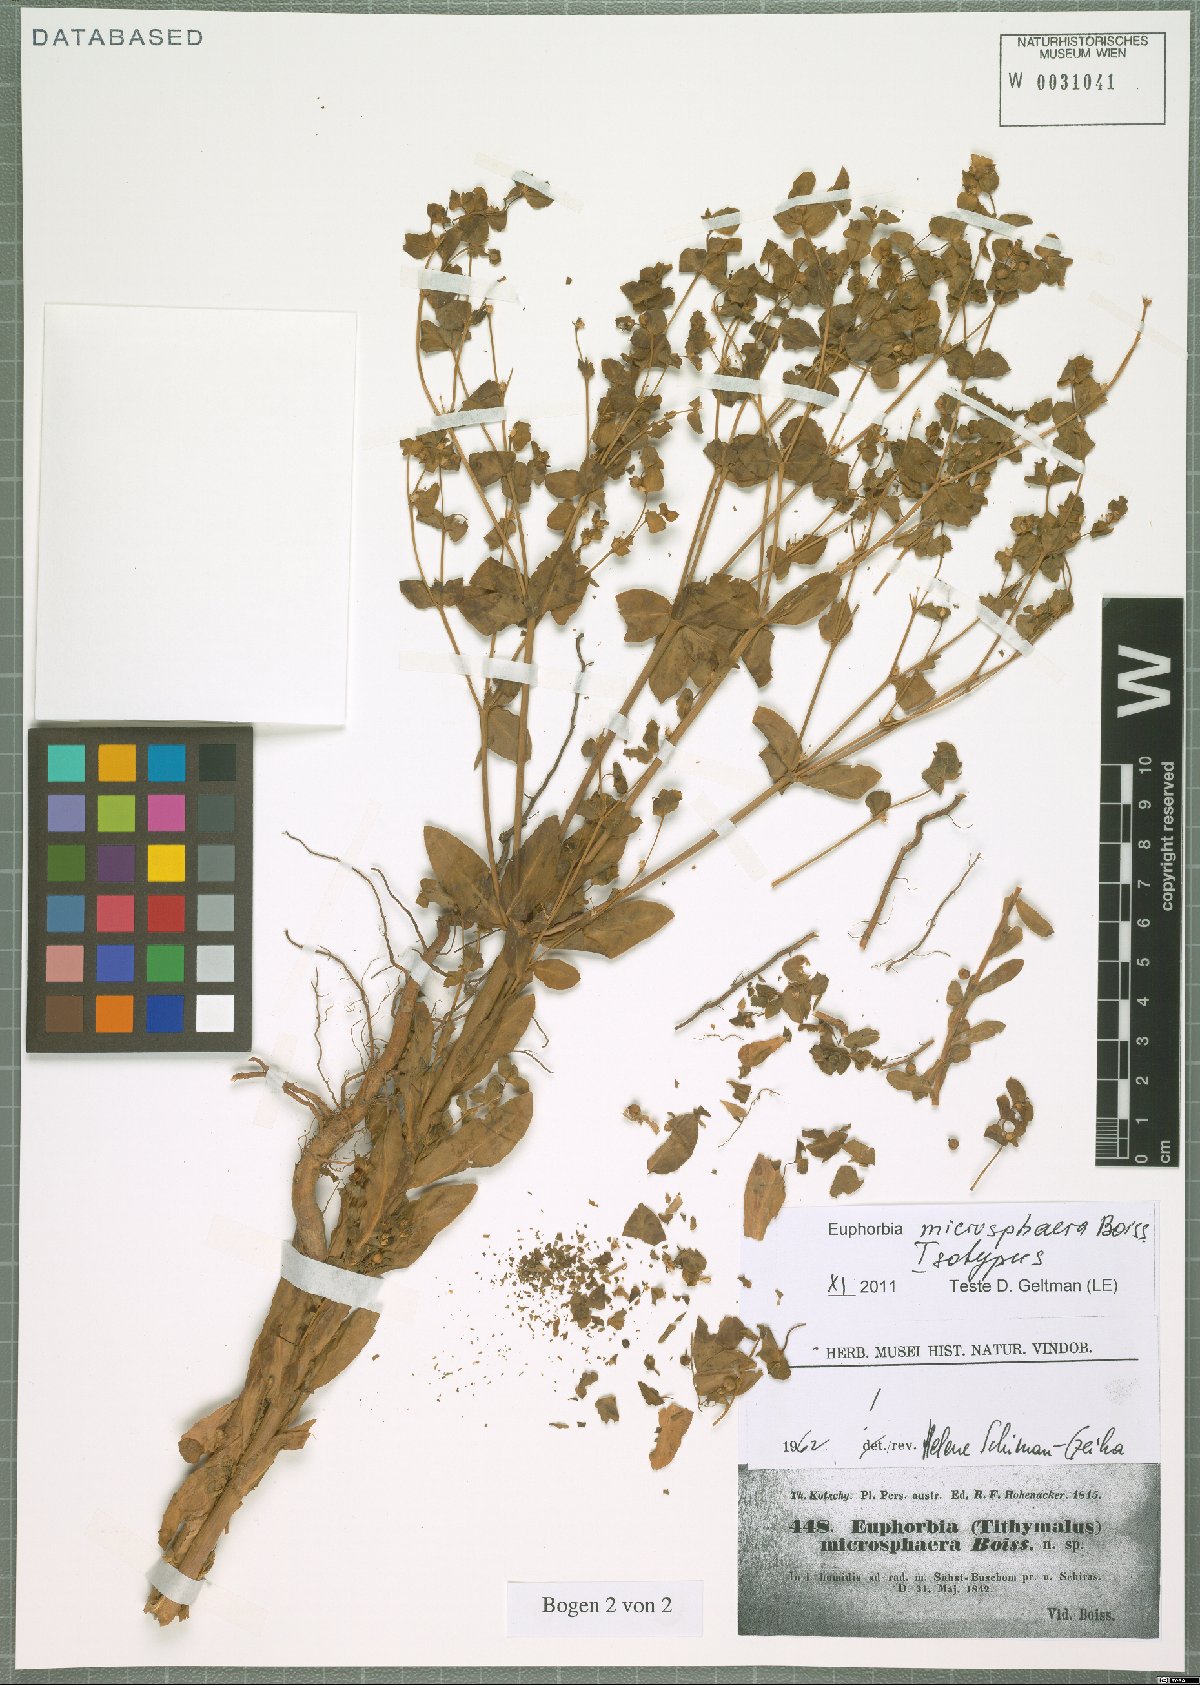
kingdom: Plantae
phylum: Tracheophyta
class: Magnoliopsida
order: Malpighiales
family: Euphorbiaceae
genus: Euphorbia
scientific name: Euphorbia microsphaera
